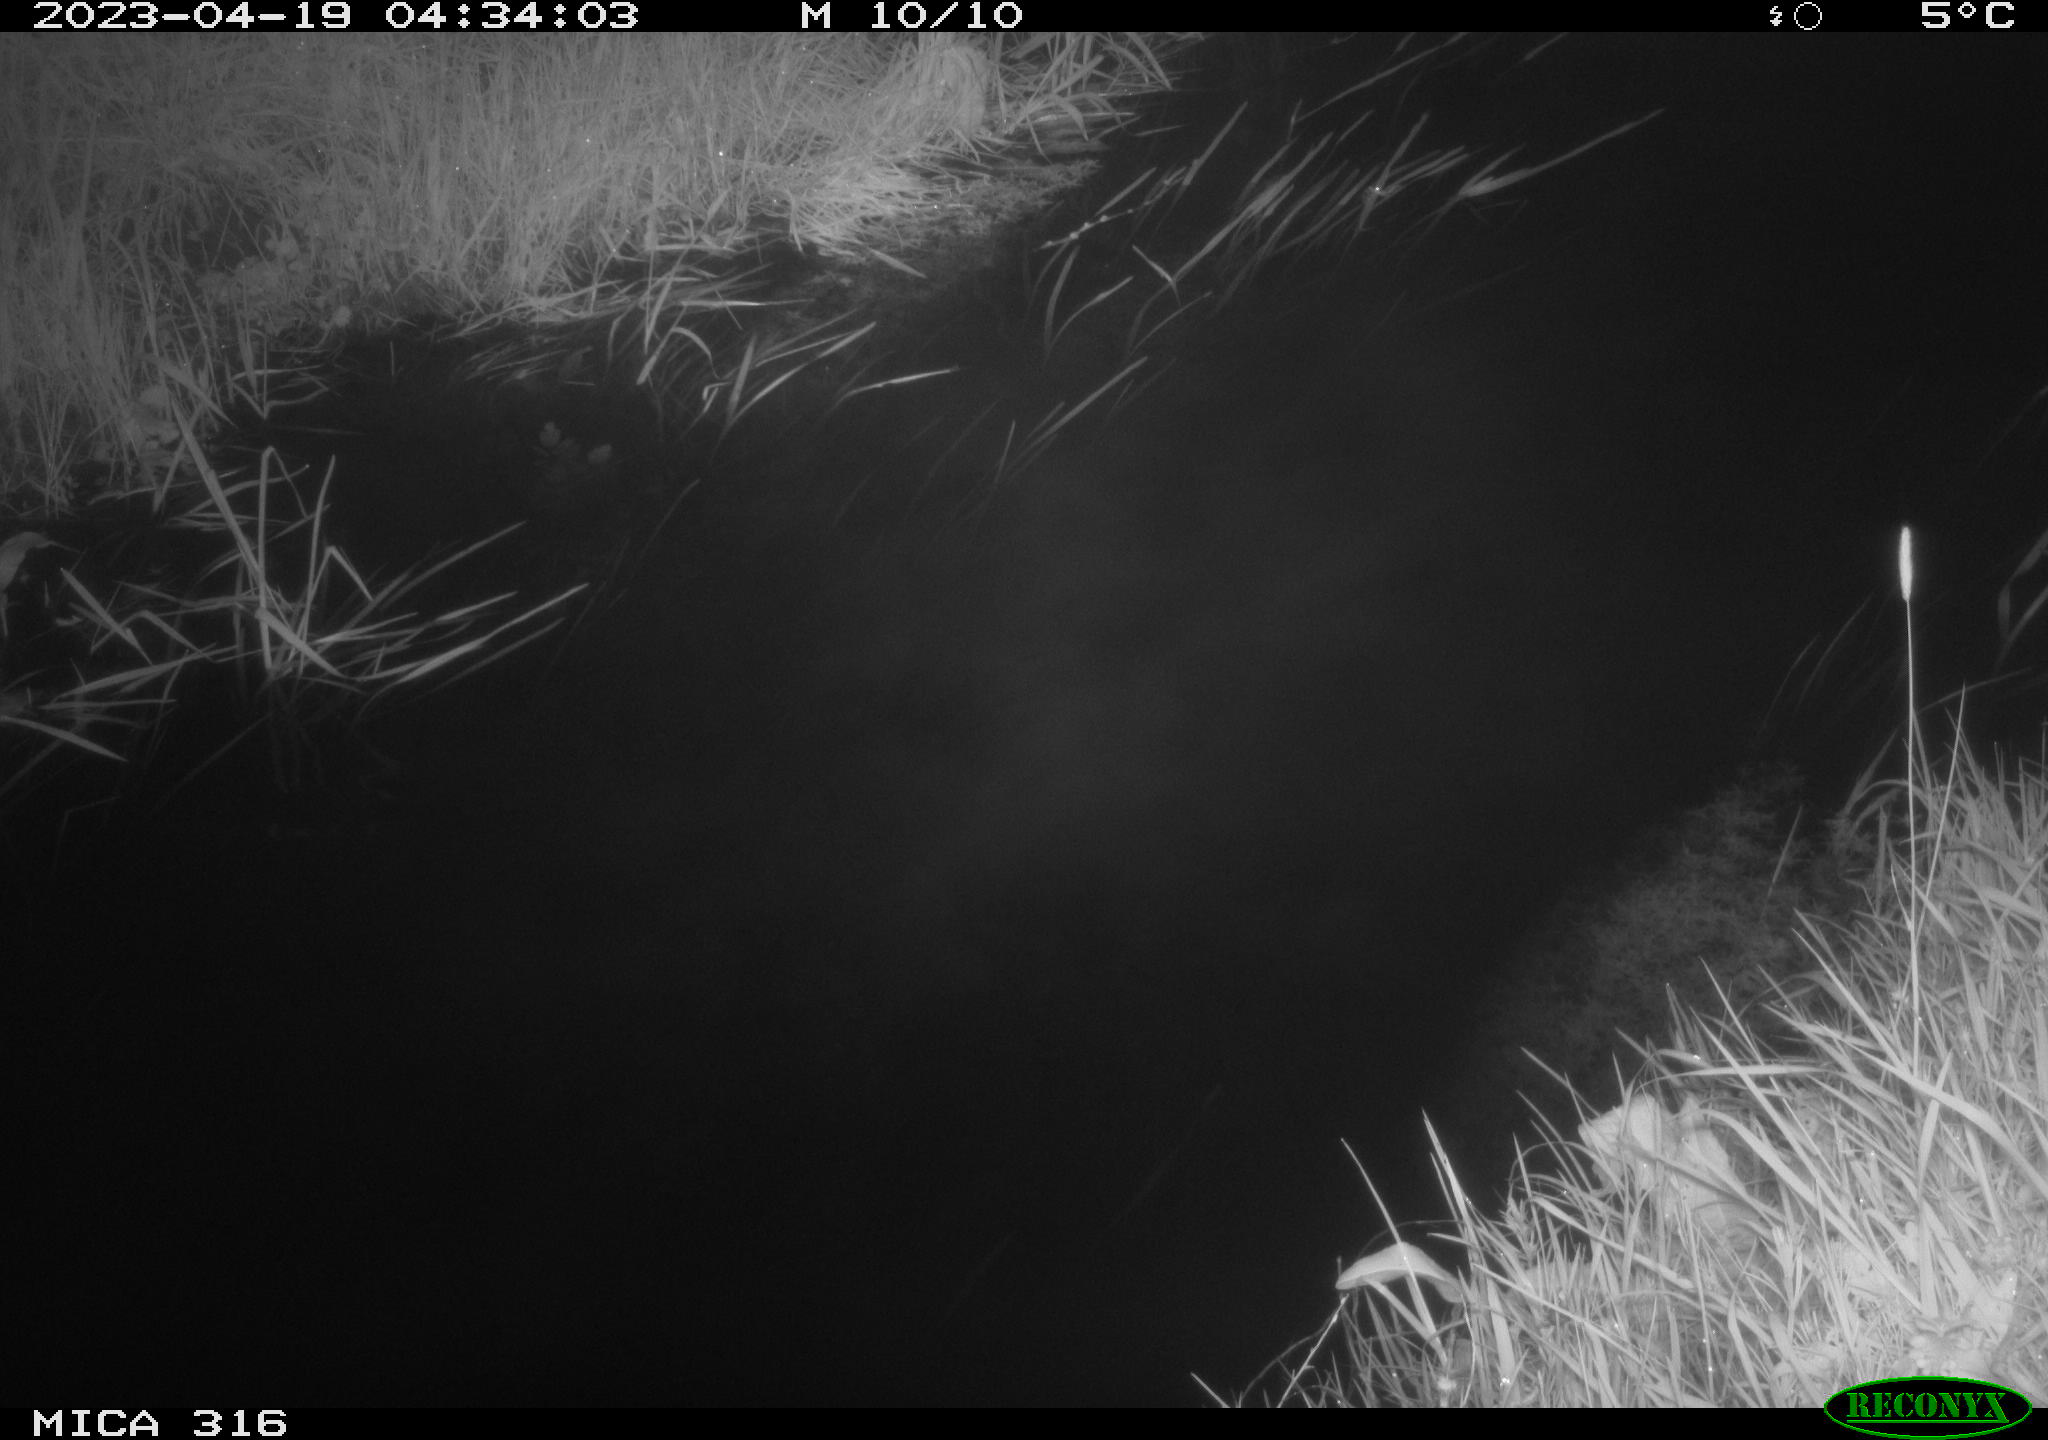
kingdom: Animalia
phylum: Chordata
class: Aves
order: Anseriformes
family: Anatidae
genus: Anas
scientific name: Anas
